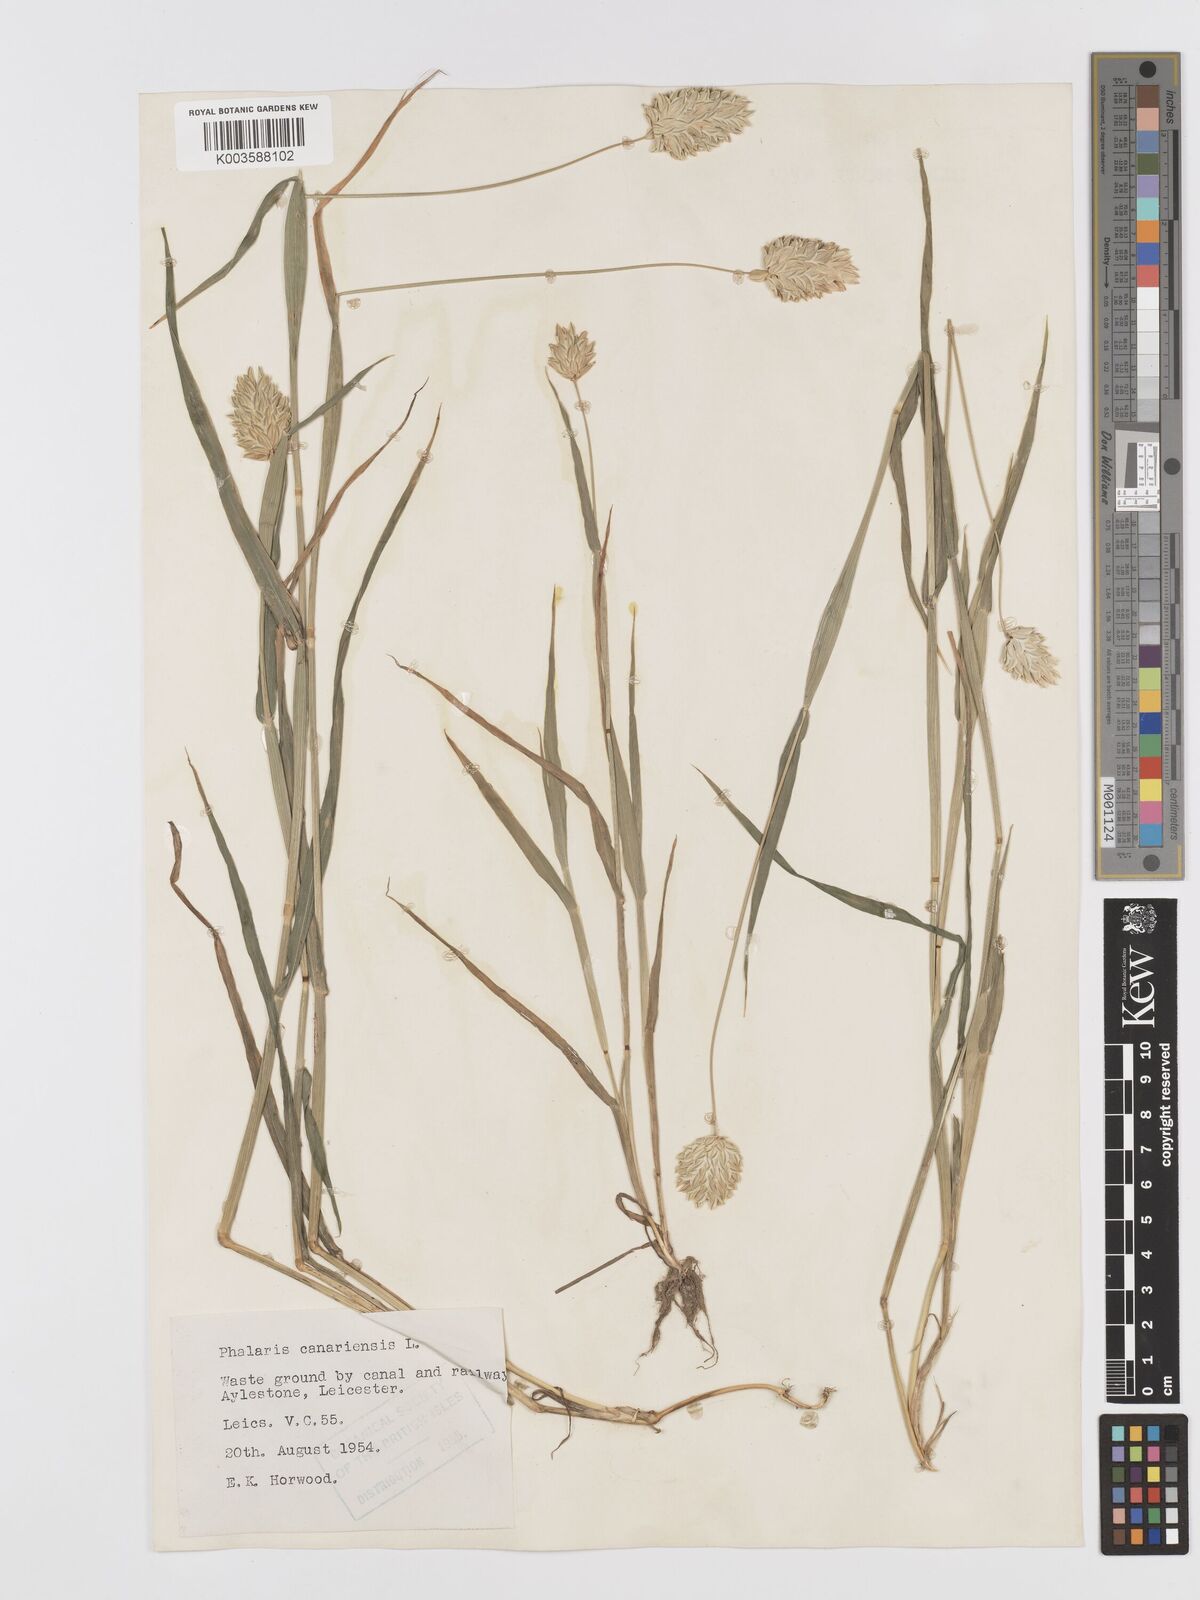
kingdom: Plantae
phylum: Tracheophyta
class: Liliopsida
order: Poales
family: Poaceae
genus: Phalaris
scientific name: Phalaris canariensis
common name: Annual canarygrass
